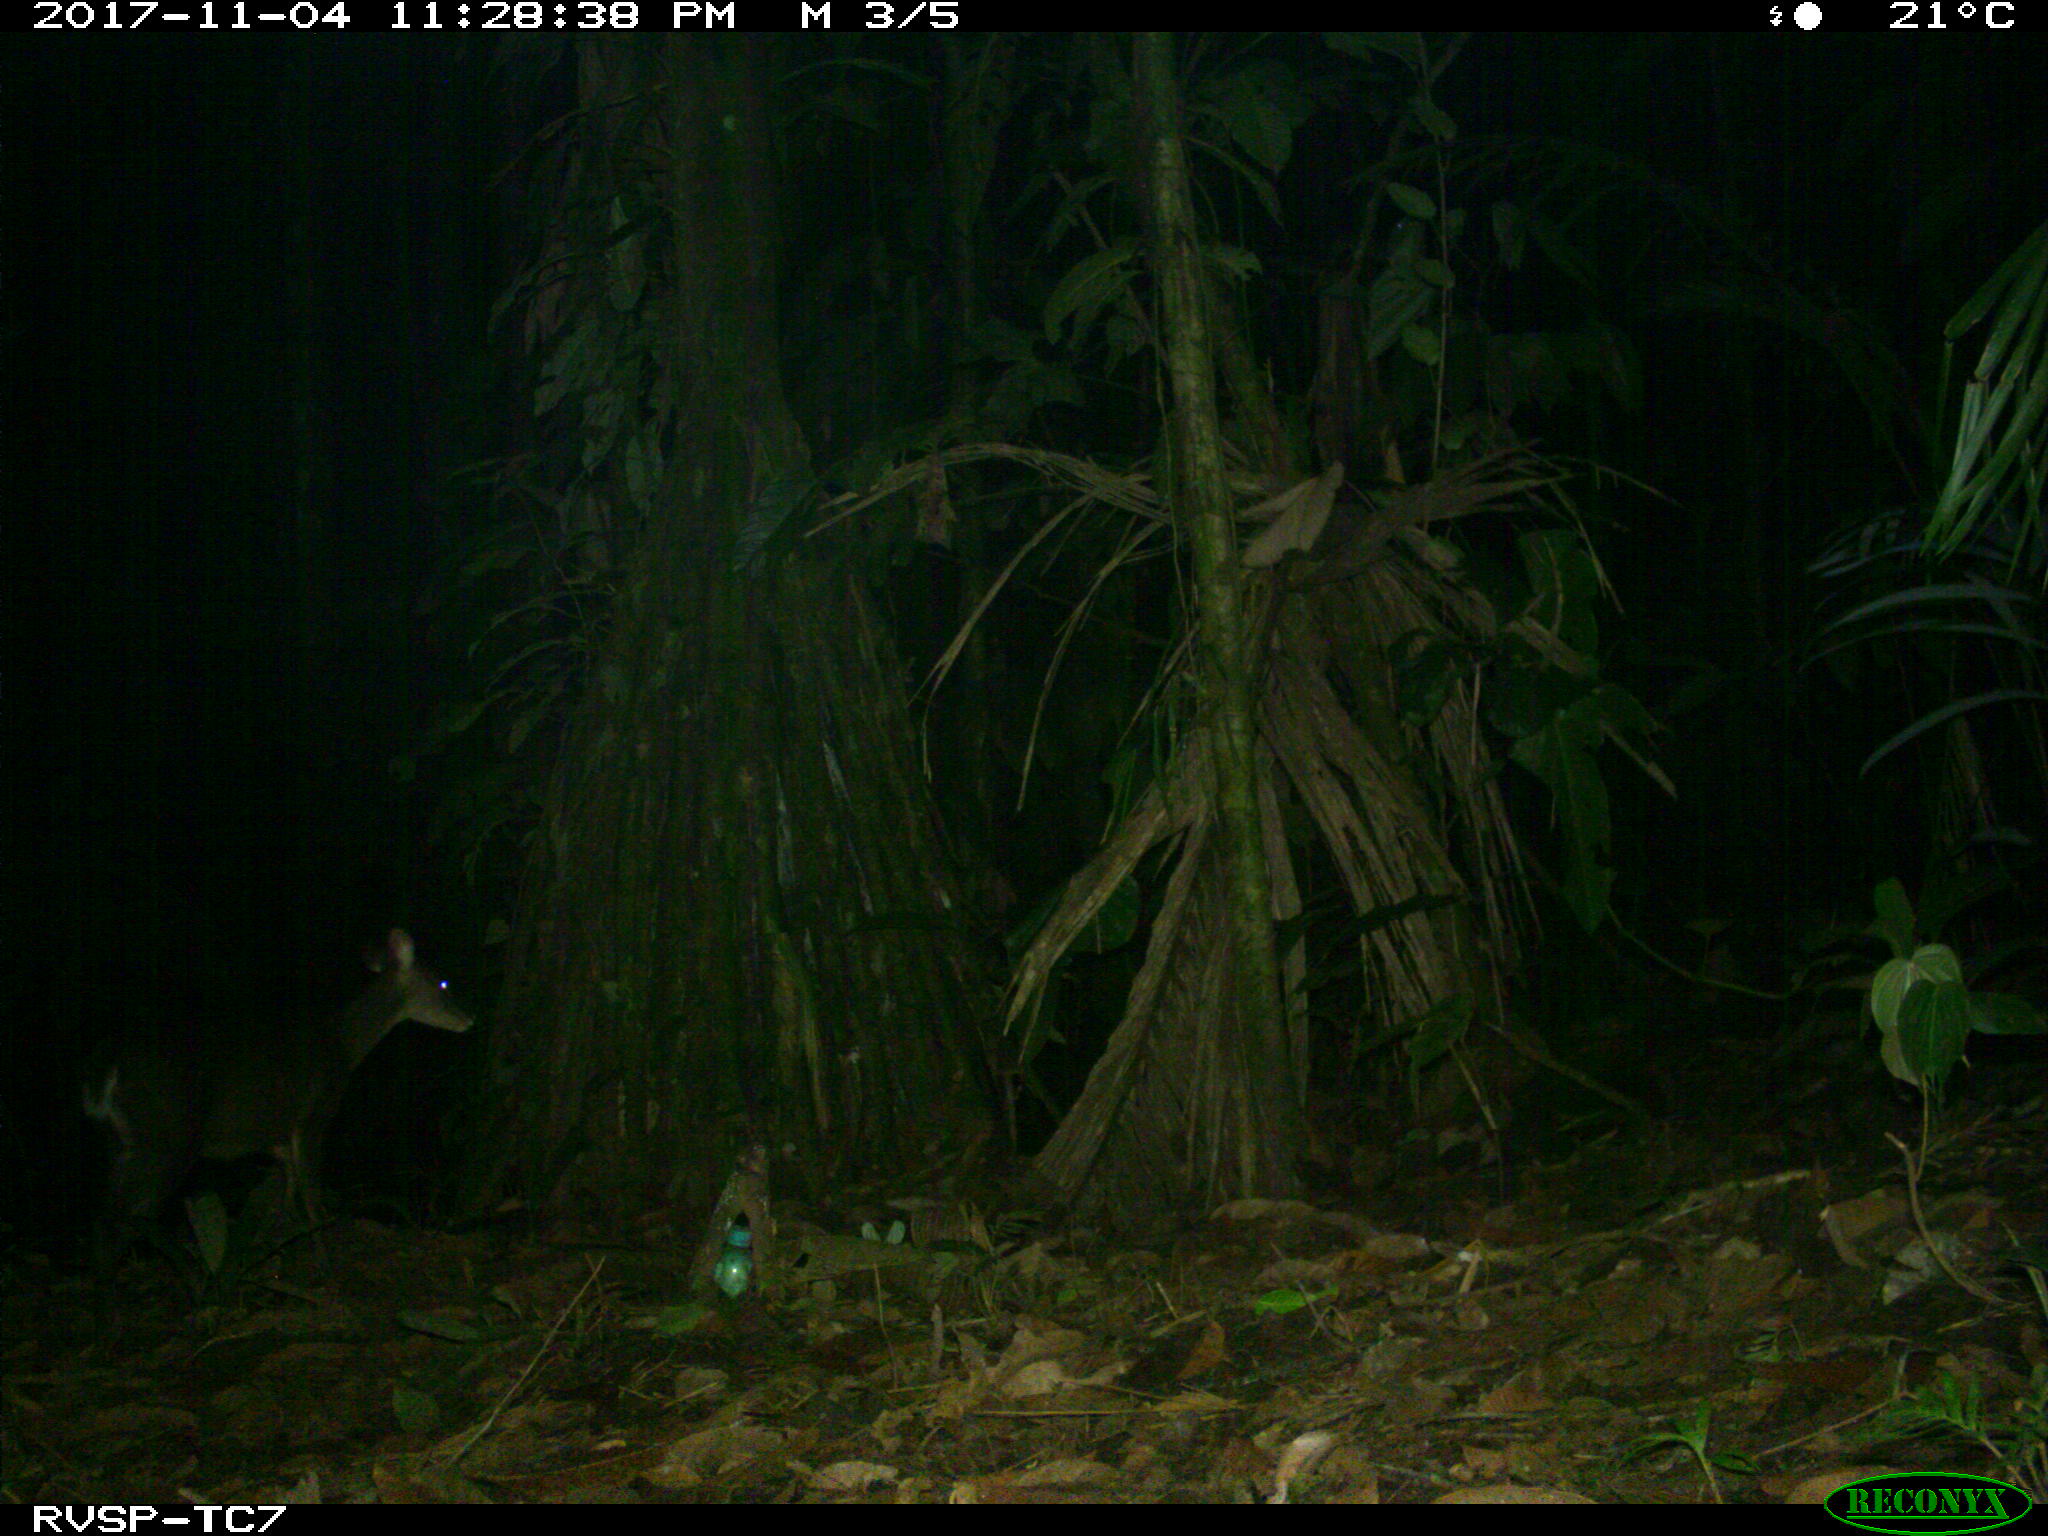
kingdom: Animalia
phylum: Chordata
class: Mammalia
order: Artiodactyla
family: Cervidae
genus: Mazama
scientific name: Mazama americana
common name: Red brocket
